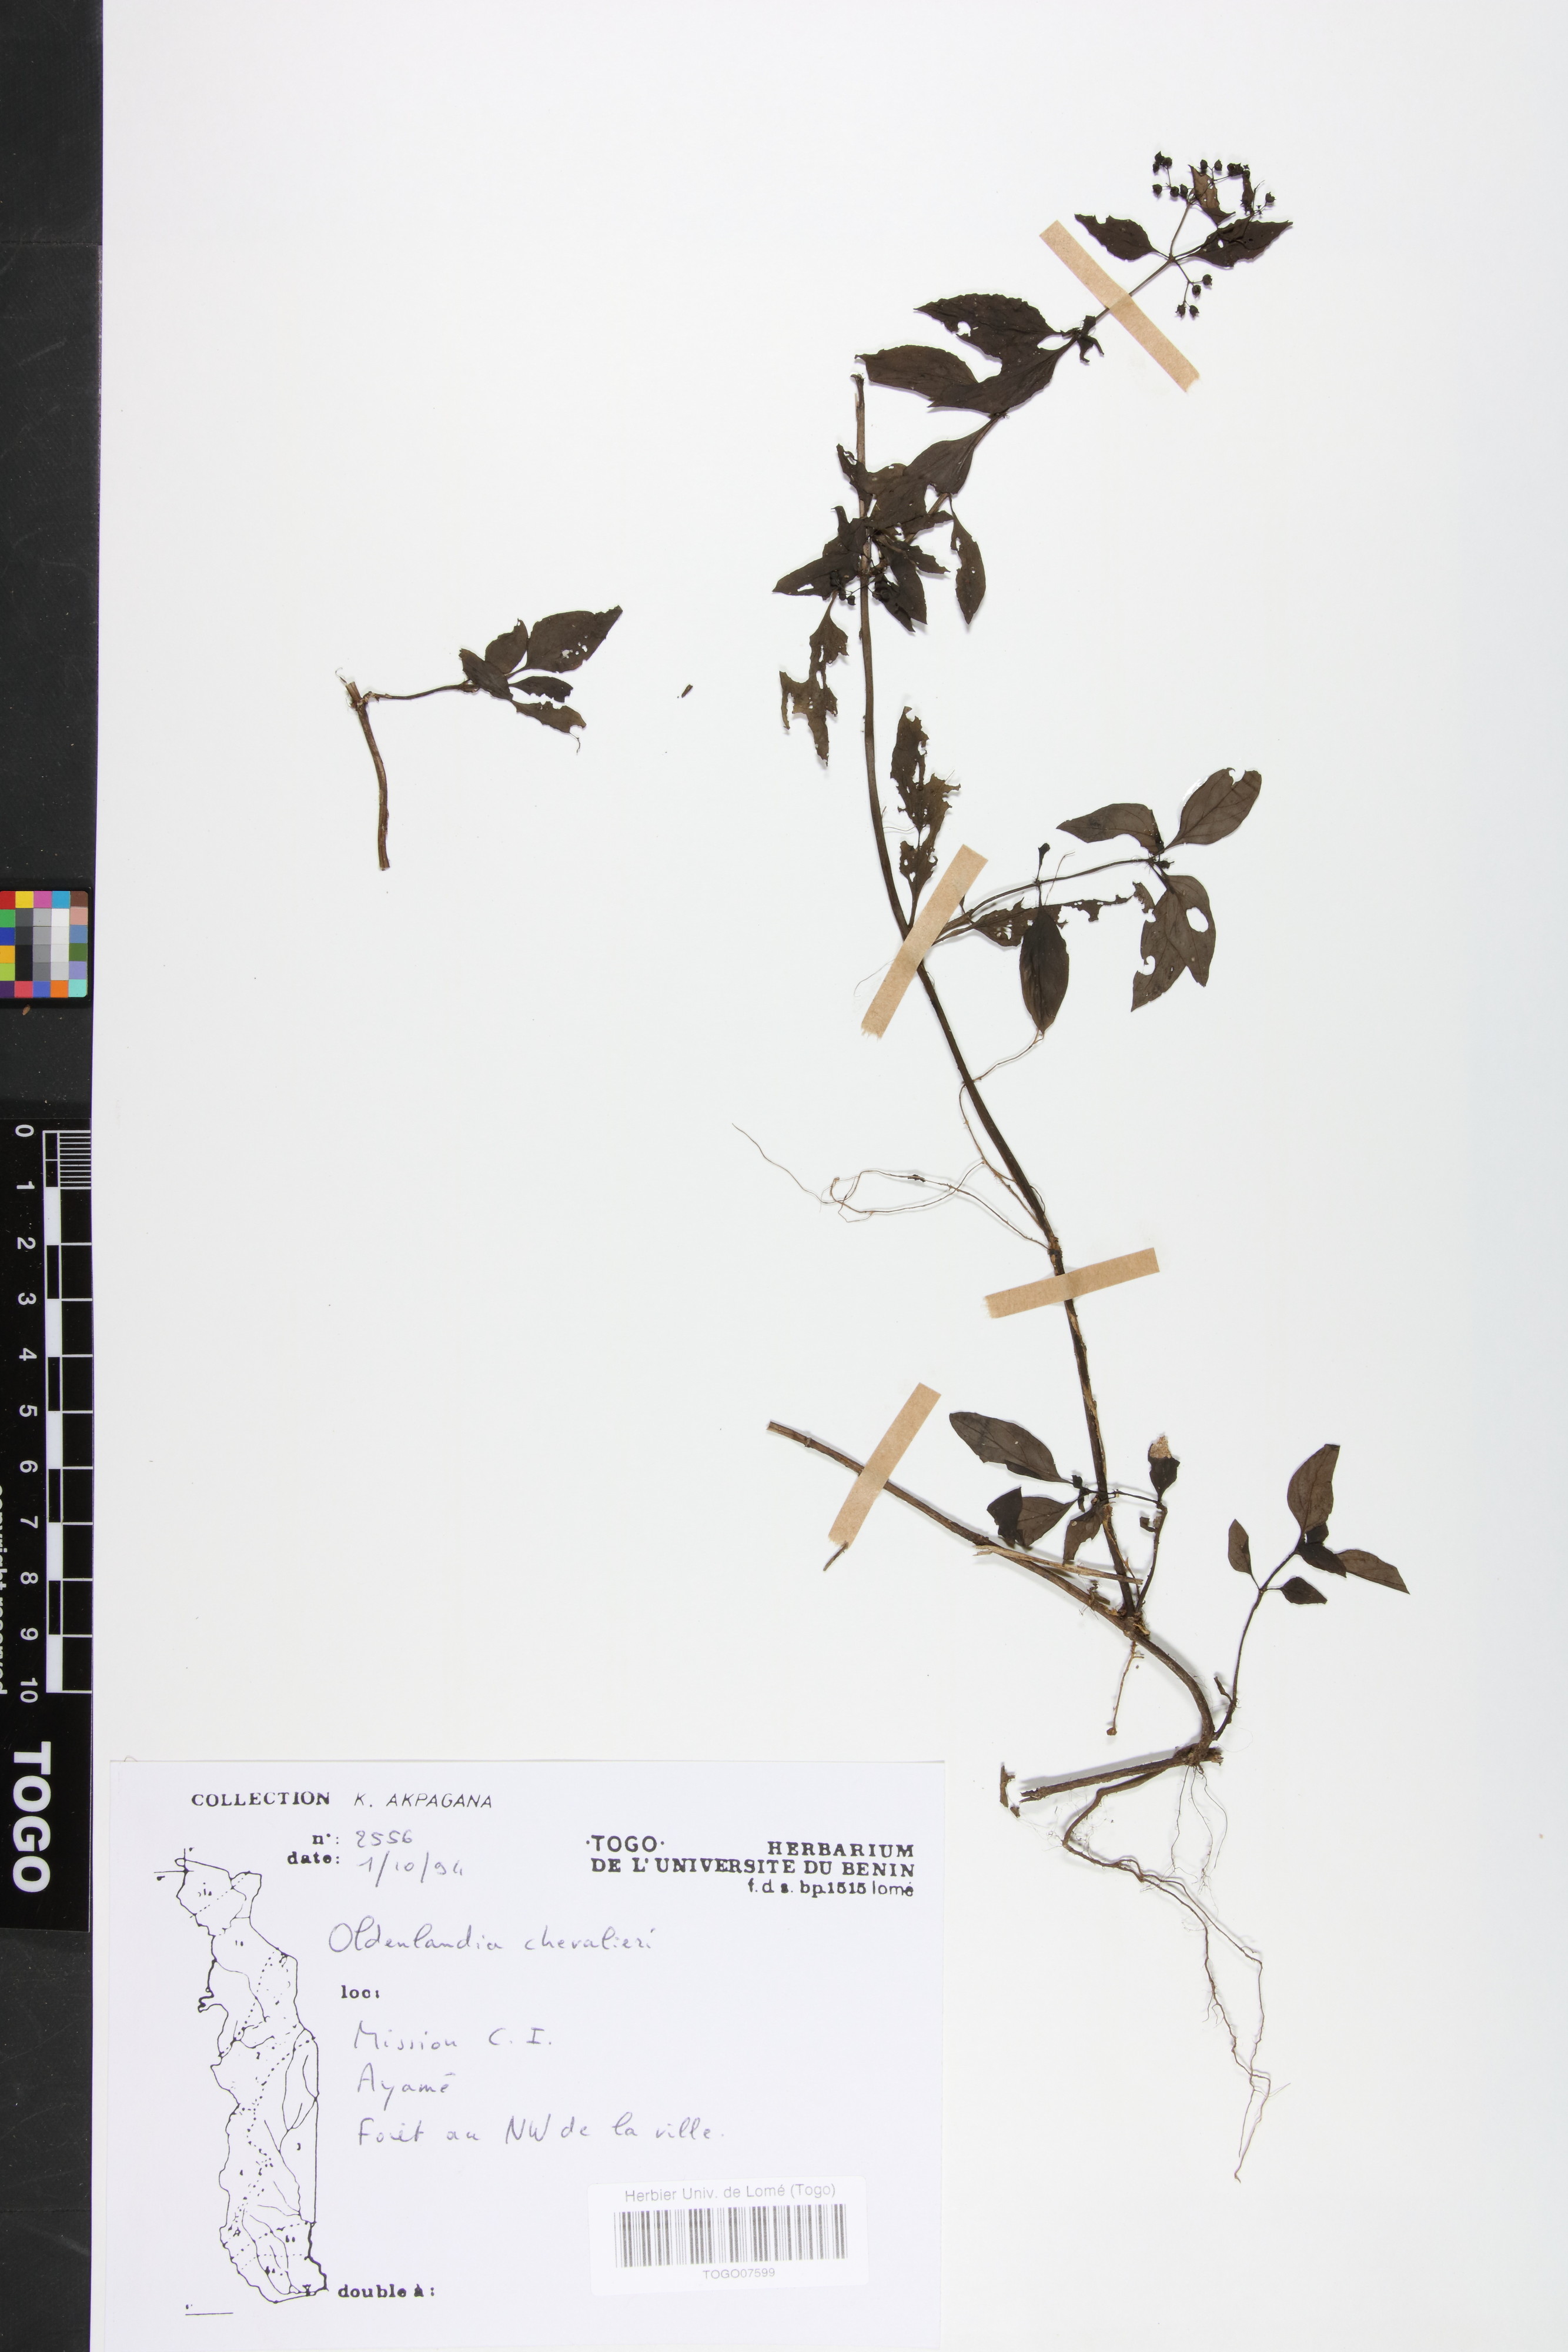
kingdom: Plantae
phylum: Tracheophyta
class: Magnoliopsida
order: Gentianales
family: Rubiaceae
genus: Oldenlandia
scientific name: Oldenlandia chevalieri
